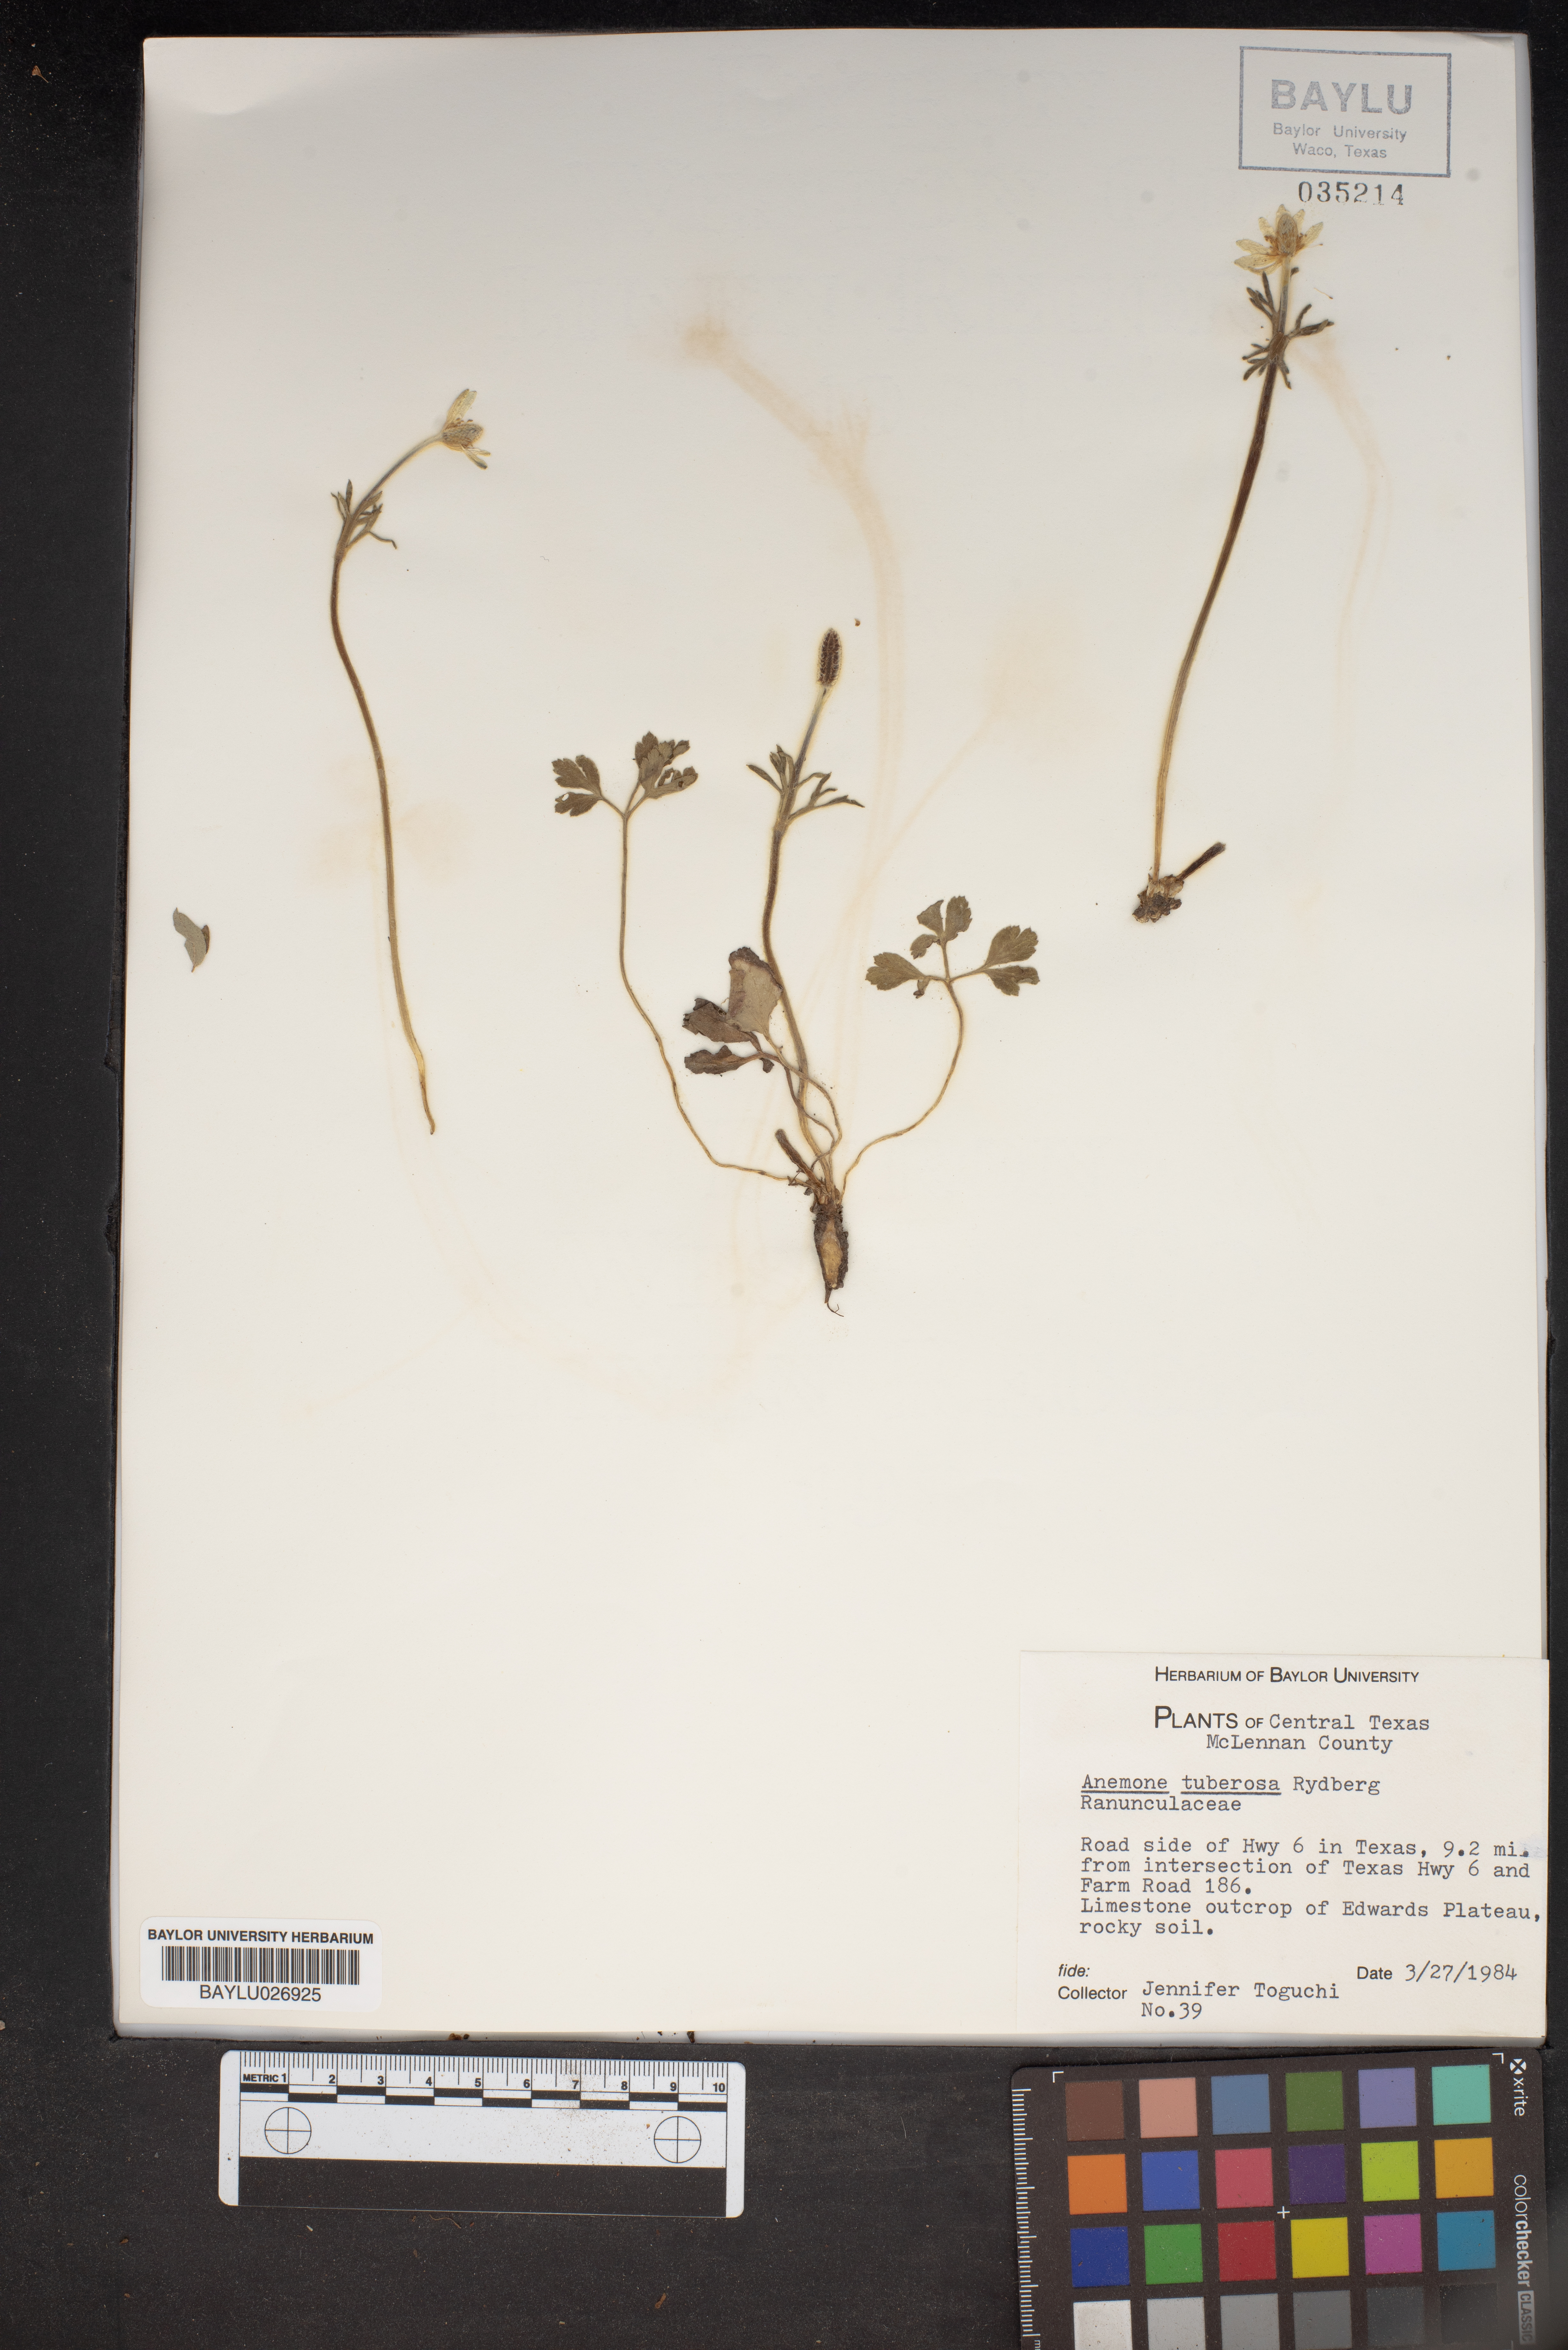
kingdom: Plantae
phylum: Tracheophyta
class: Magnoliopsida
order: Ranunculales
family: Ranunculaceae
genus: Anemone
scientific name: Anemone tuberosa
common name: Desert anemone
